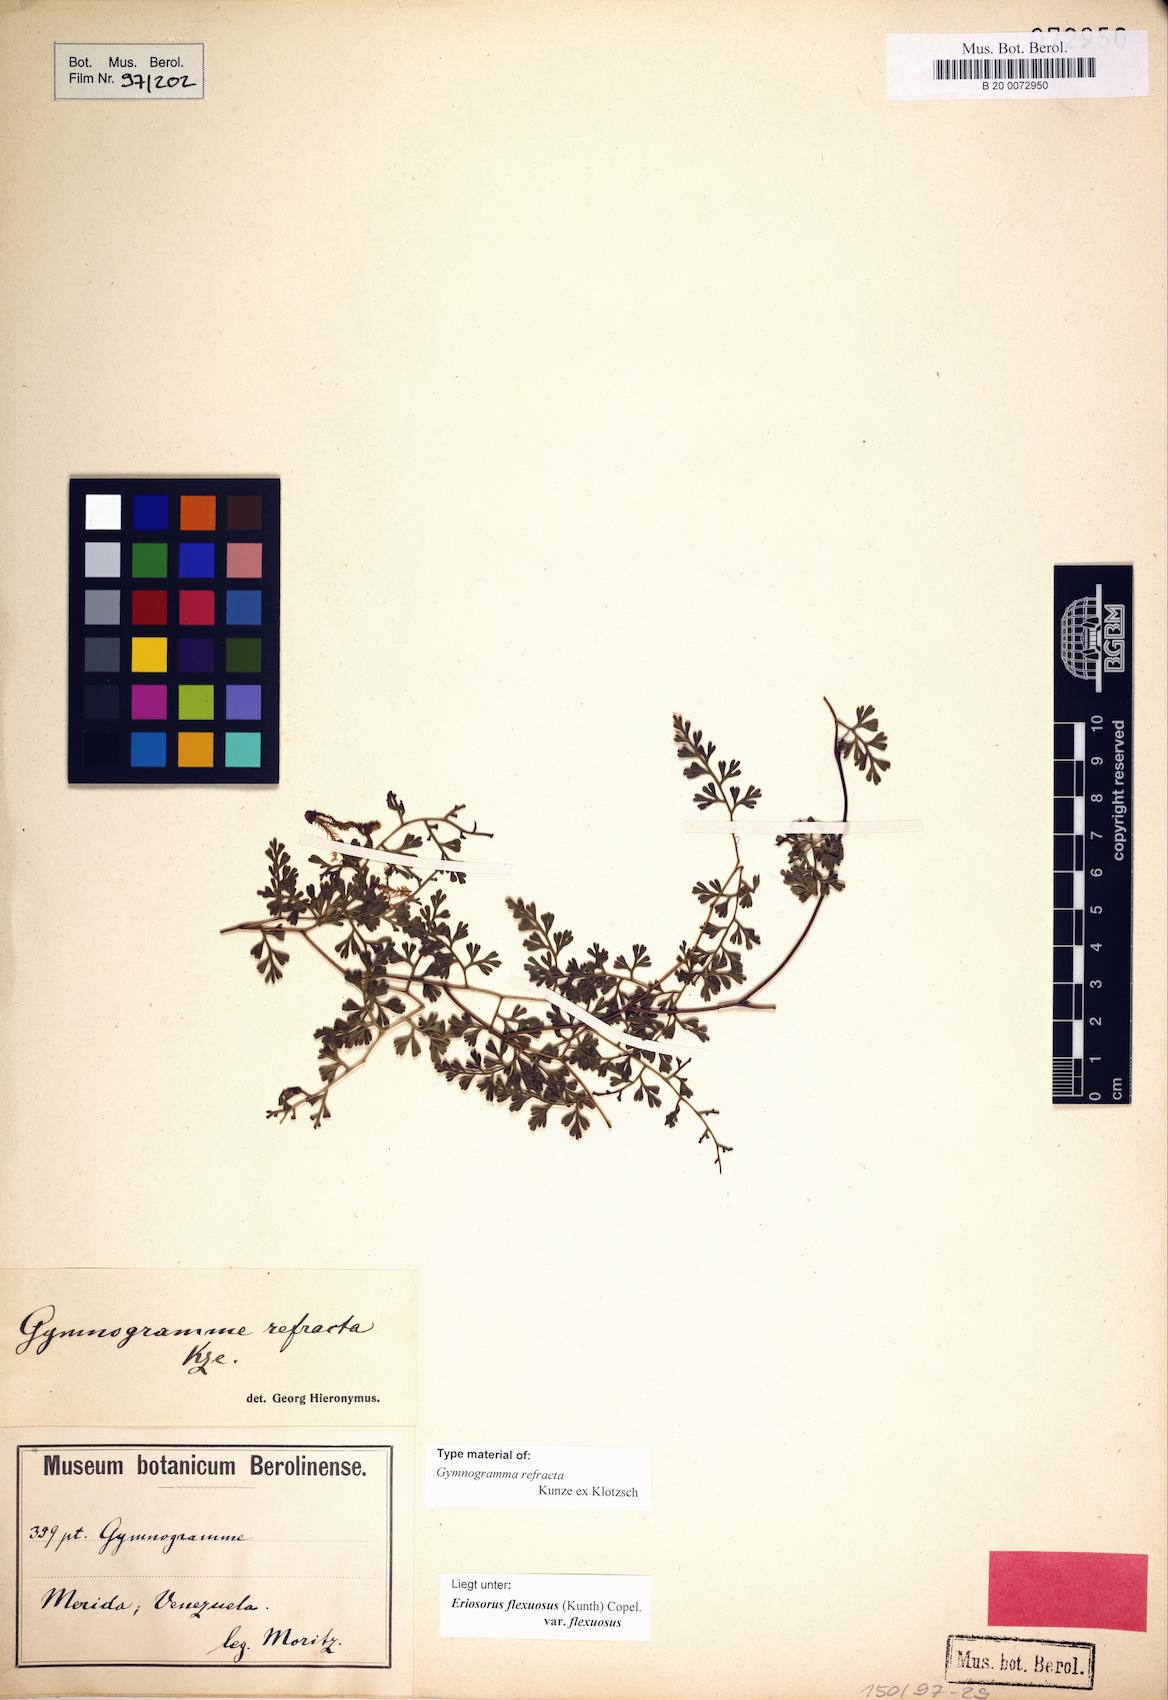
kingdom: Plantae
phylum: Tracheophyta
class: Polypodiopsida
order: Polypodiales
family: Pteridaceae
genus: Jamesonia
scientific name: Jamesonia flexuosa
